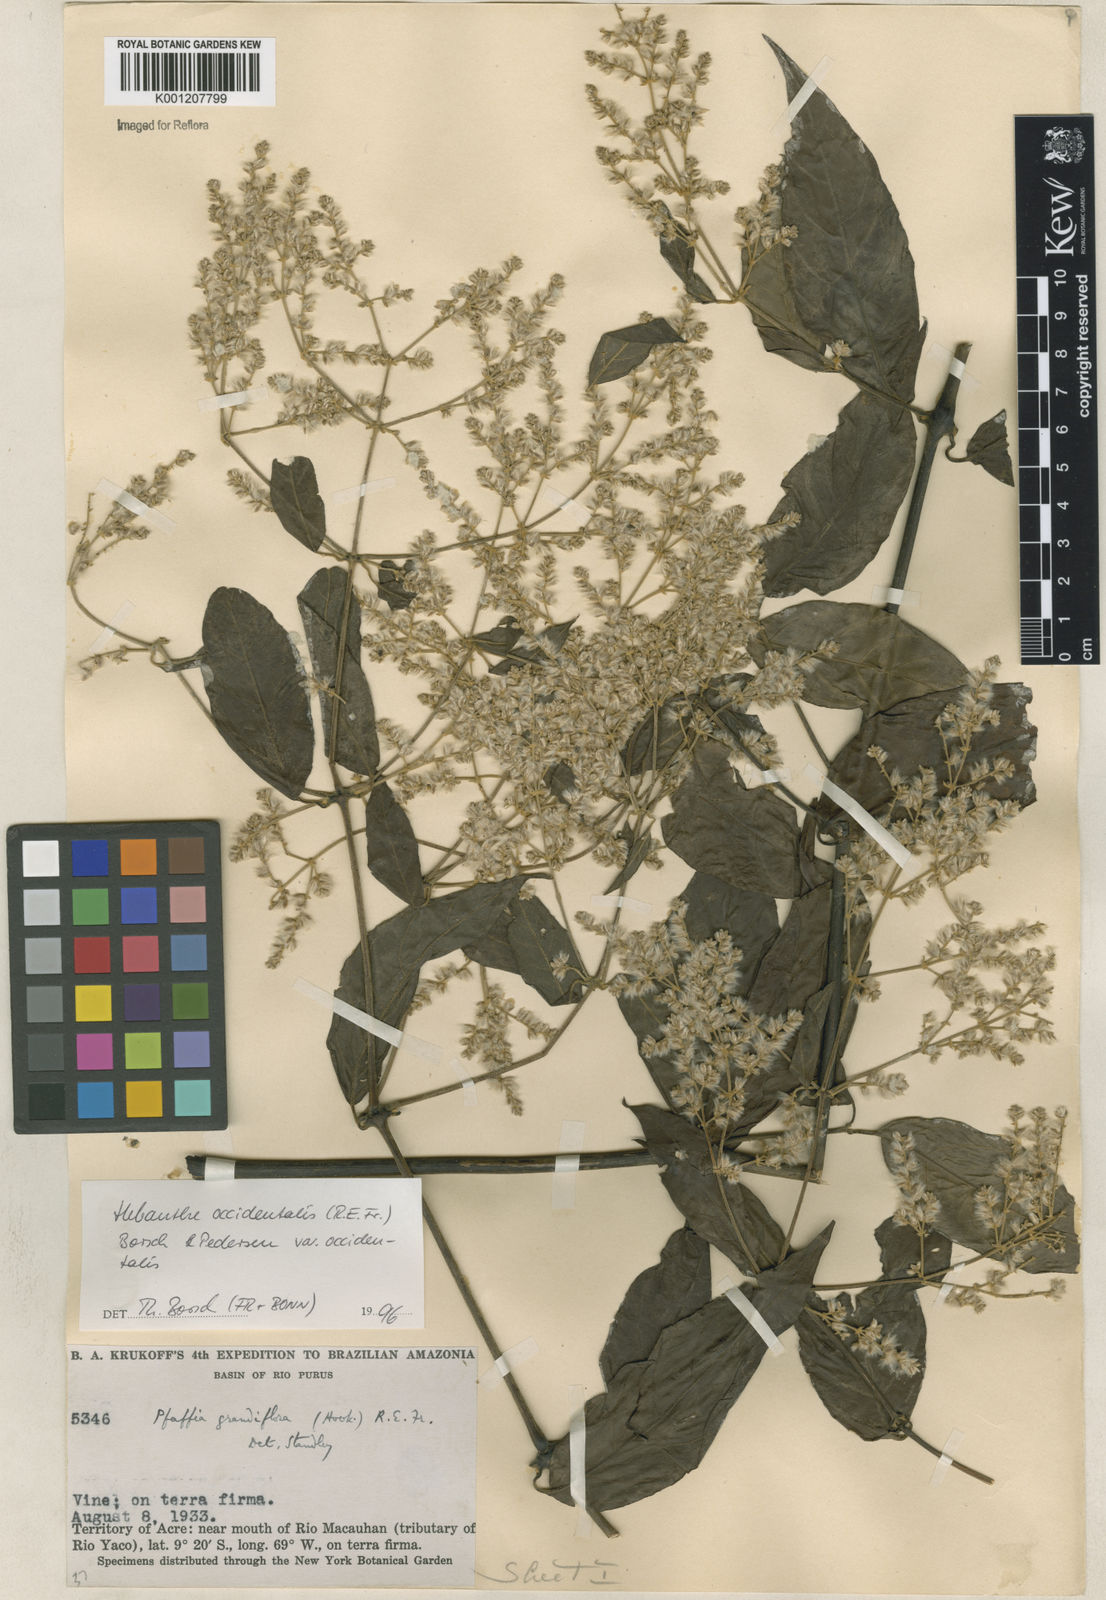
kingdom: Plantae
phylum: Tracheophyta
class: Magnoliopsida
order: Caryophyllales
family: Amaranthaceae
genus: Hebanthe
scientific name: Hebanthe occidentalis
